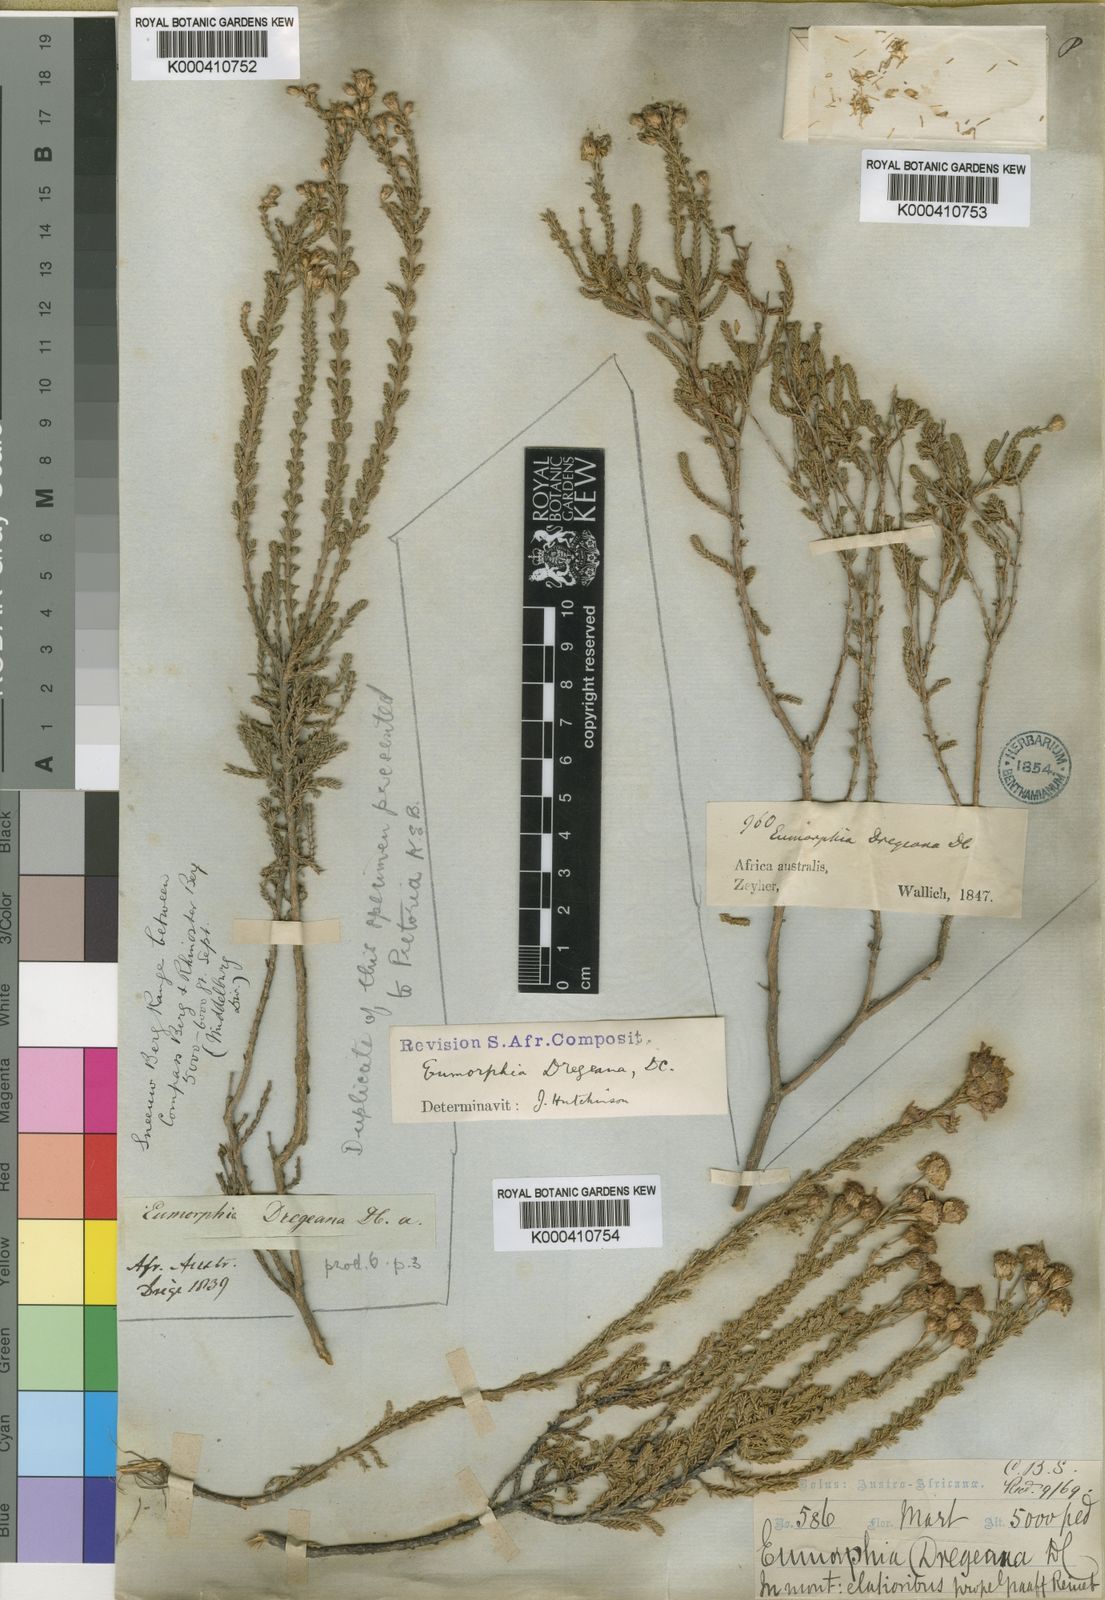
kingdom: Plantae
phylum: Tracheophyta
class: Magnoliopsida
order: Asterales
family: Asteraceae
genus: Eumorphia
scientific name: Eumorphia dregeana
